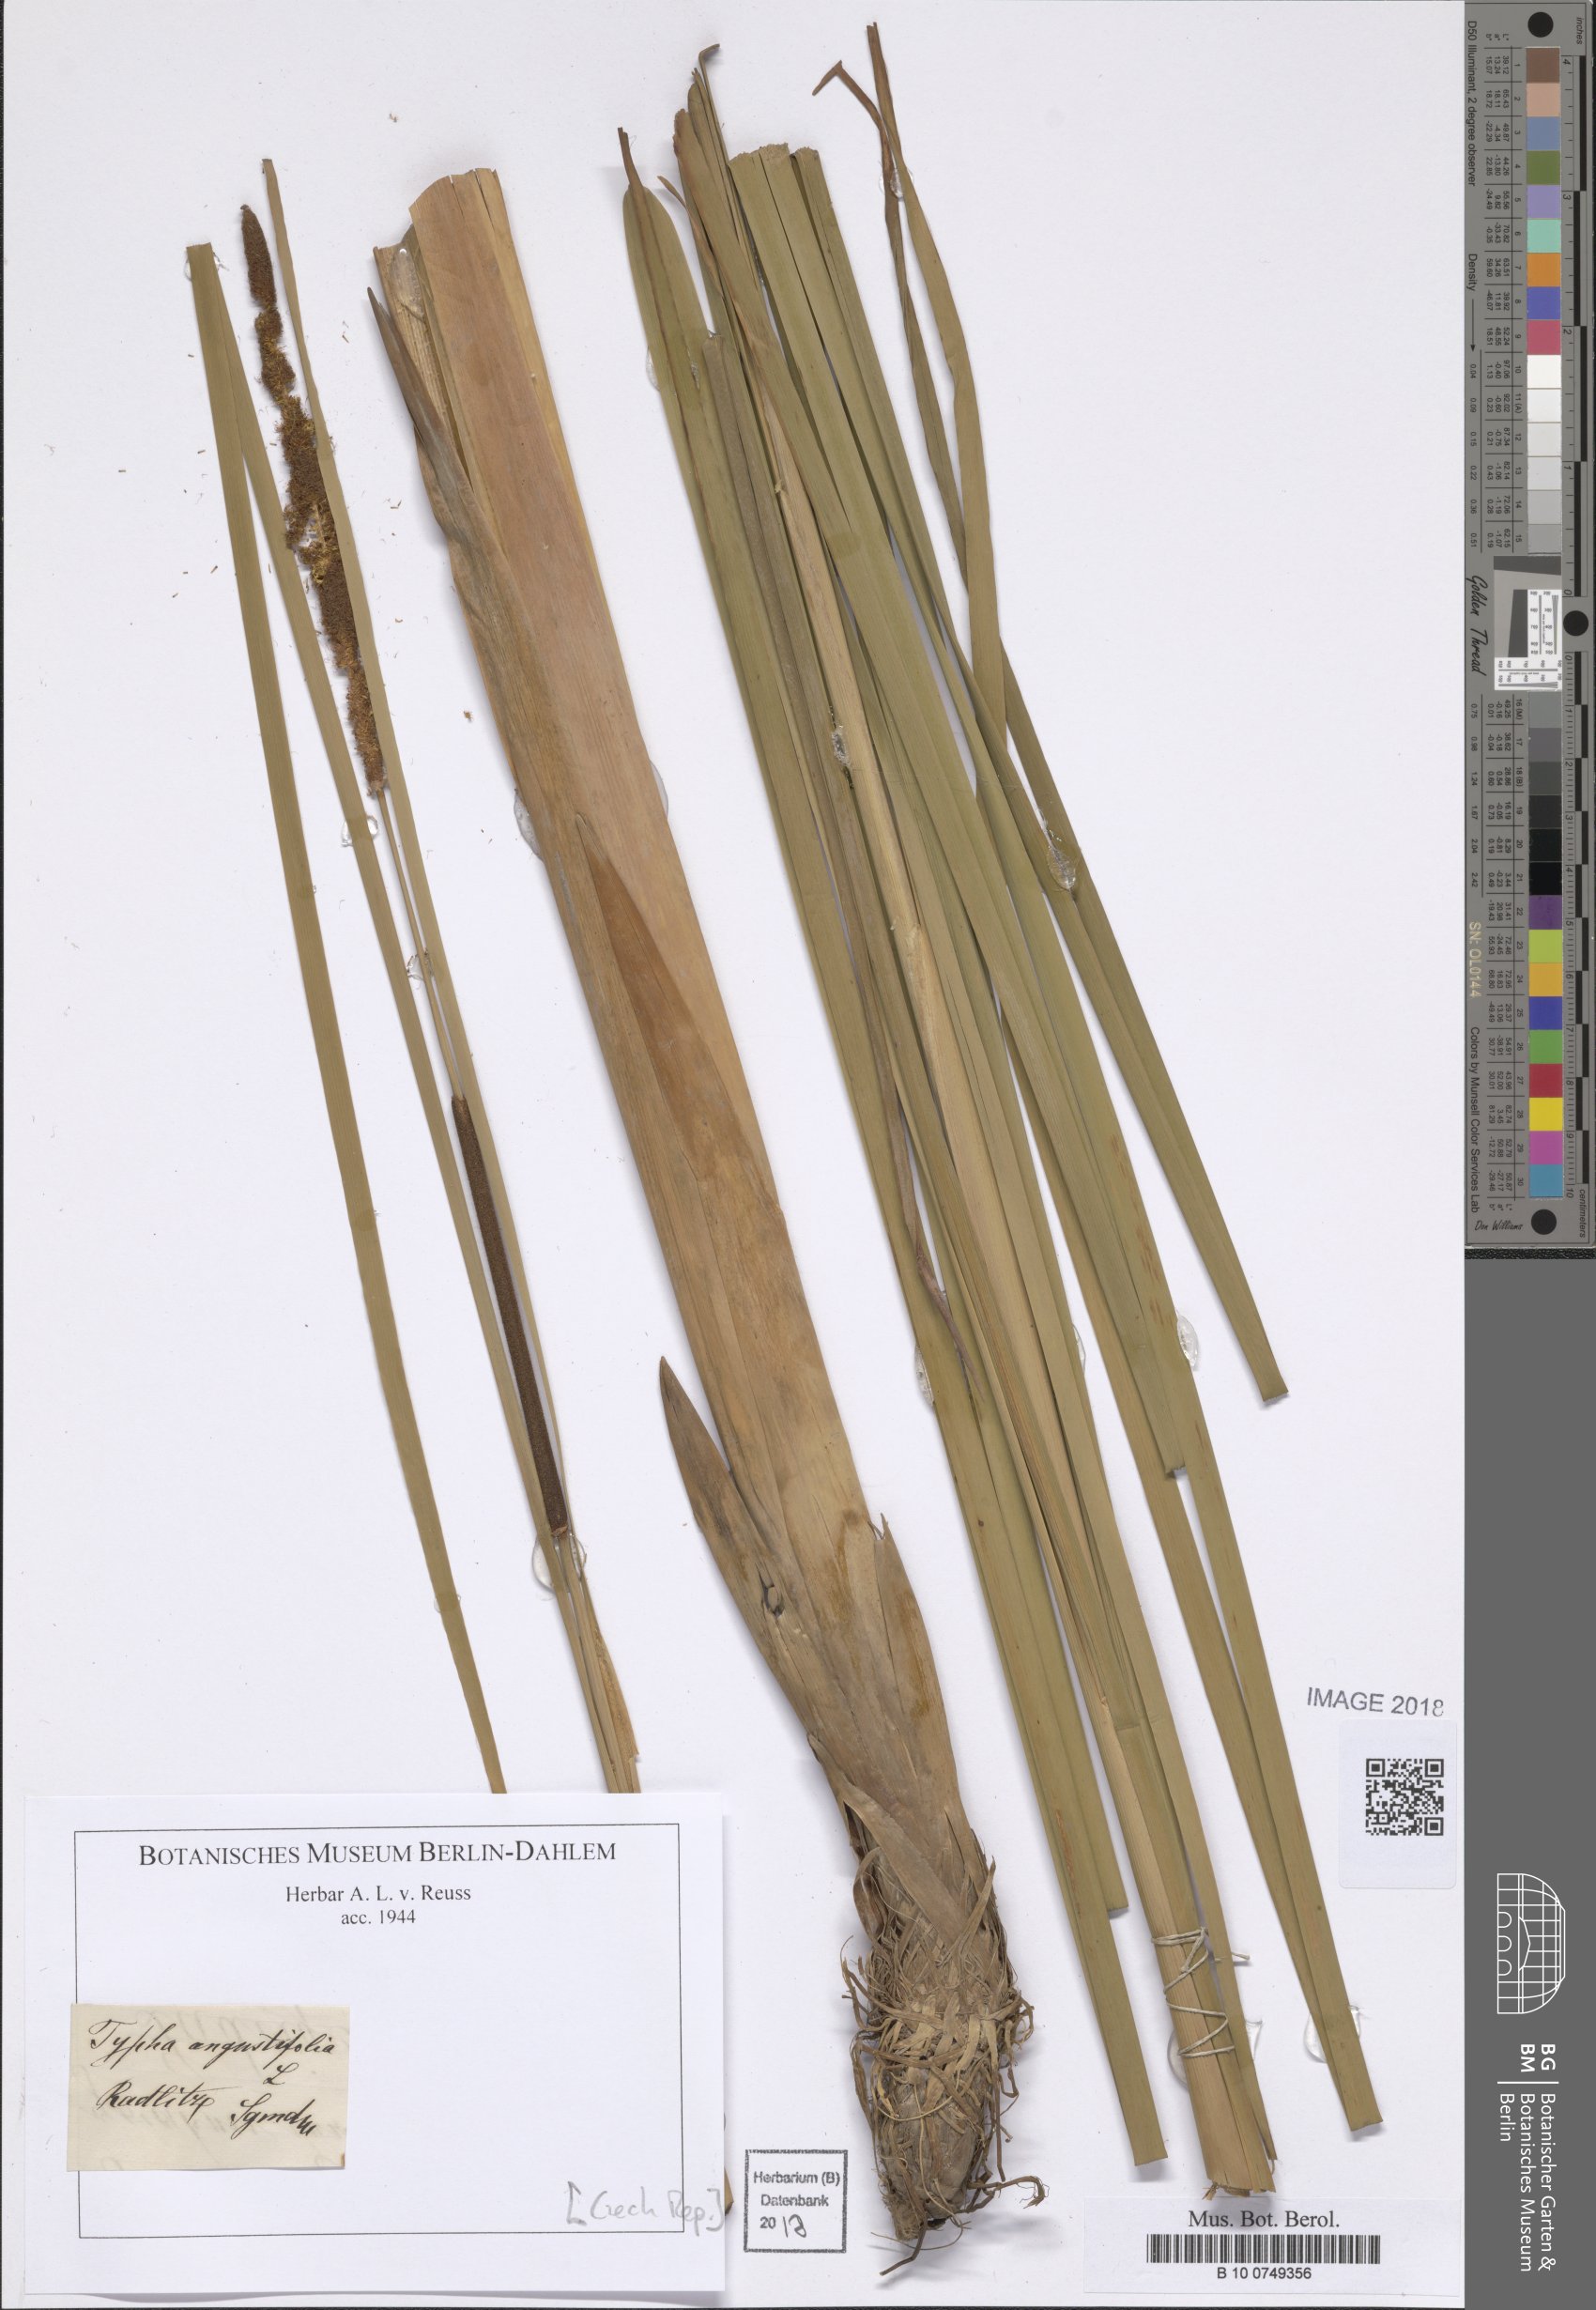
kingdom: Plantae
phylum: Tracheophyta
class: Liliopsida
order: Poales
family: Typhaceae
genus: Typha
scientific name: Typha angustifolia
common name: Lesser bulrush
